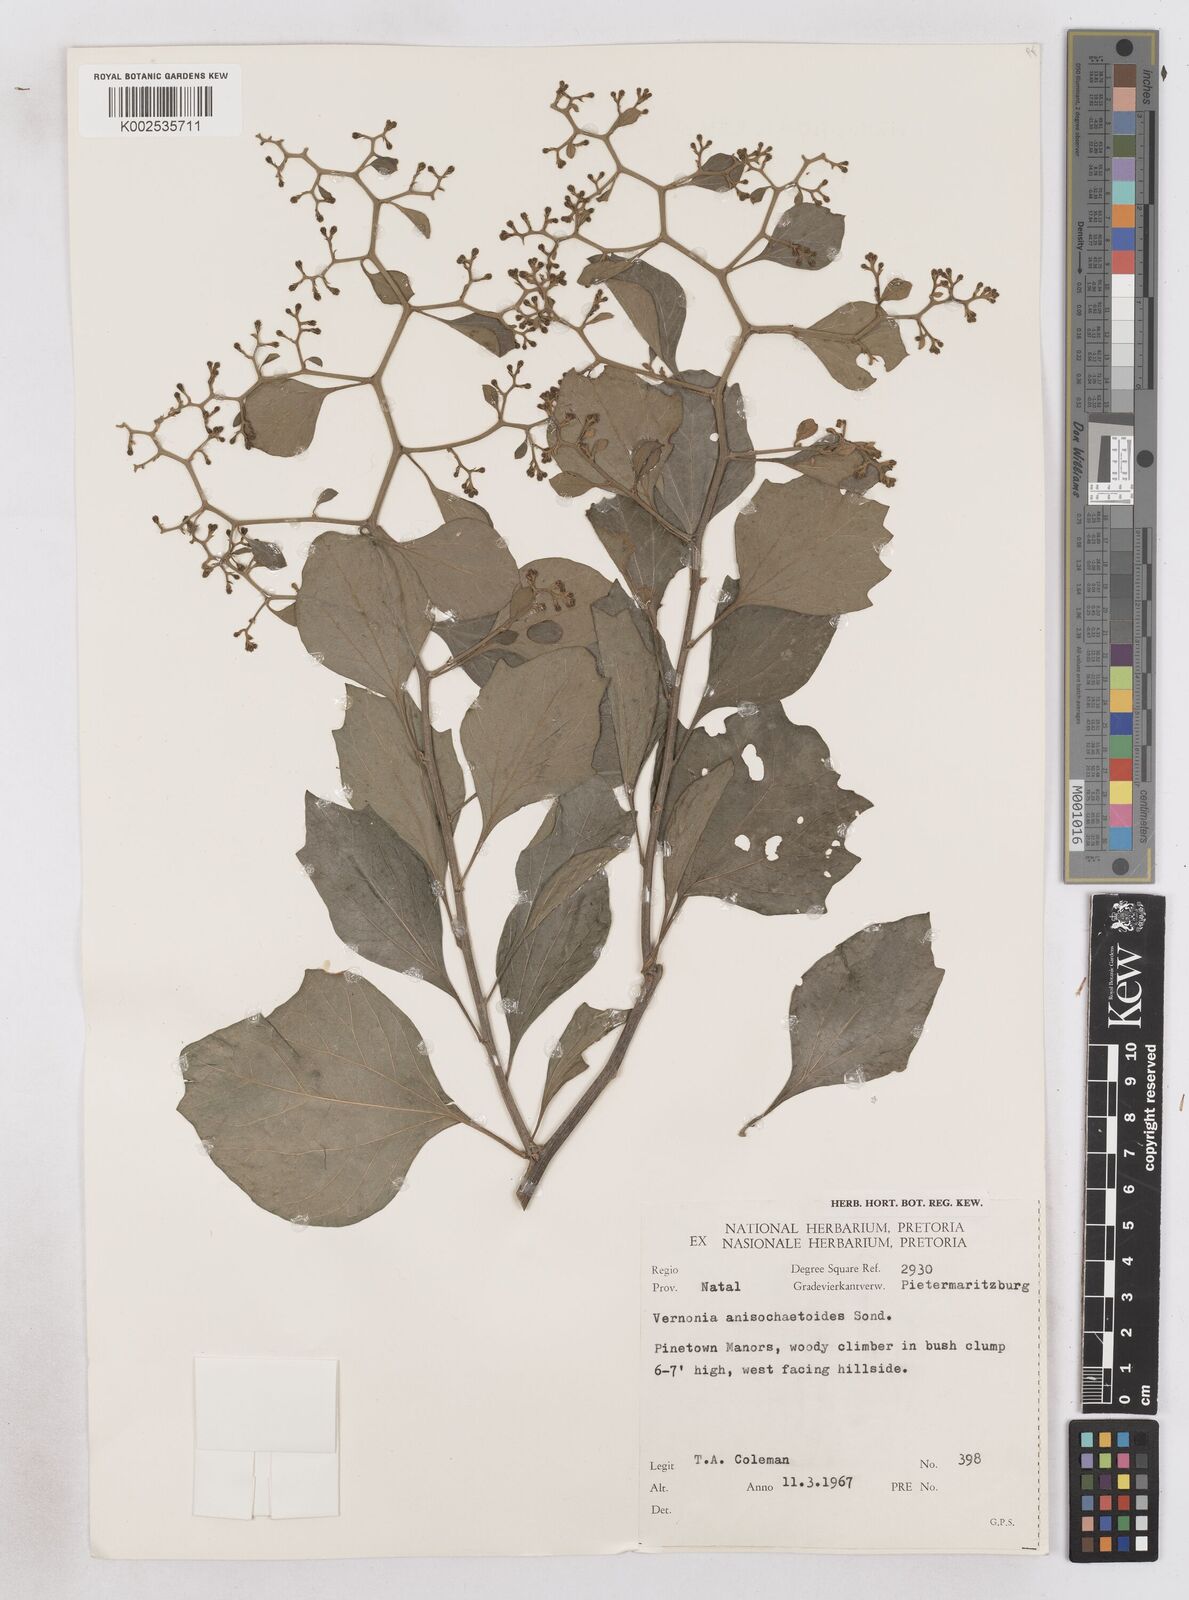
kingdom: Plantae
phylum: Tracheophyta
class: Magnoliopsida
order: Asterales
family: Asteraceae
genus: Distephanus
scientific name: Distephanus anisochaetoides
